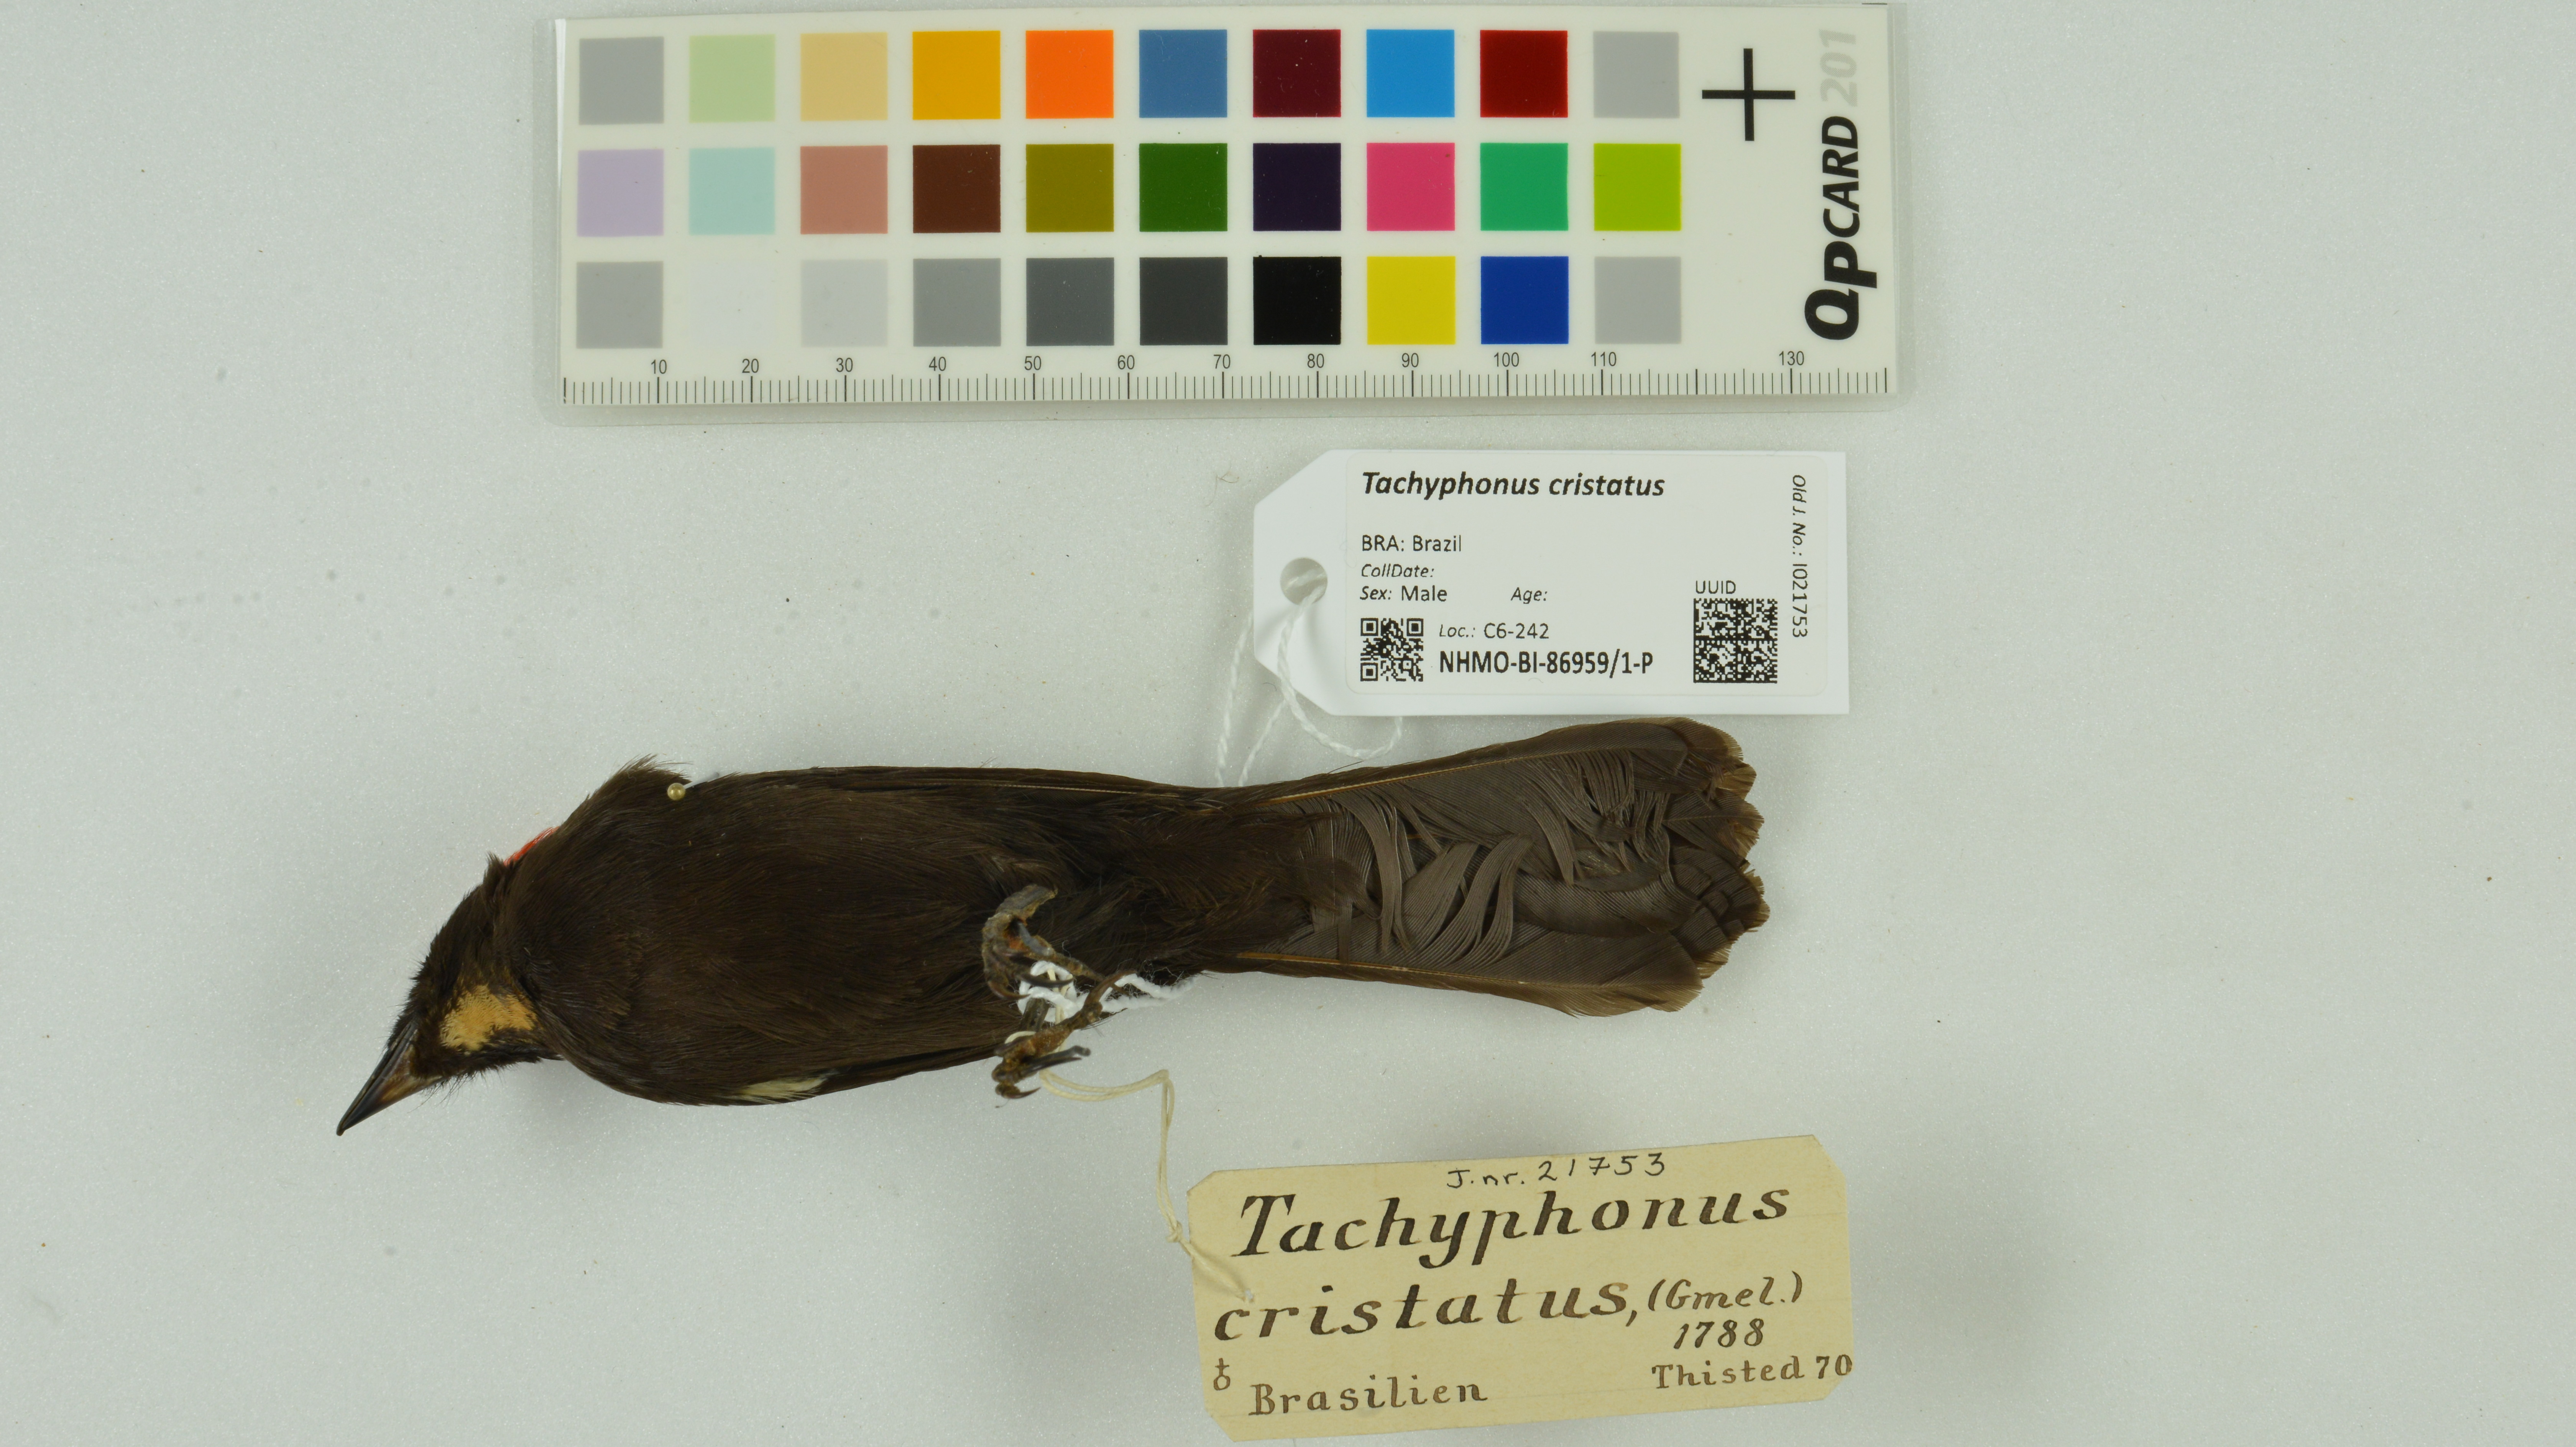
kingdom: Animalia
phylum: Chordata
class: Aves
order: Passeriformes
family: Thraupidae
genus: Loriotus
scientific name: Loriotus cristatus
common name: Flame-crested tanager
